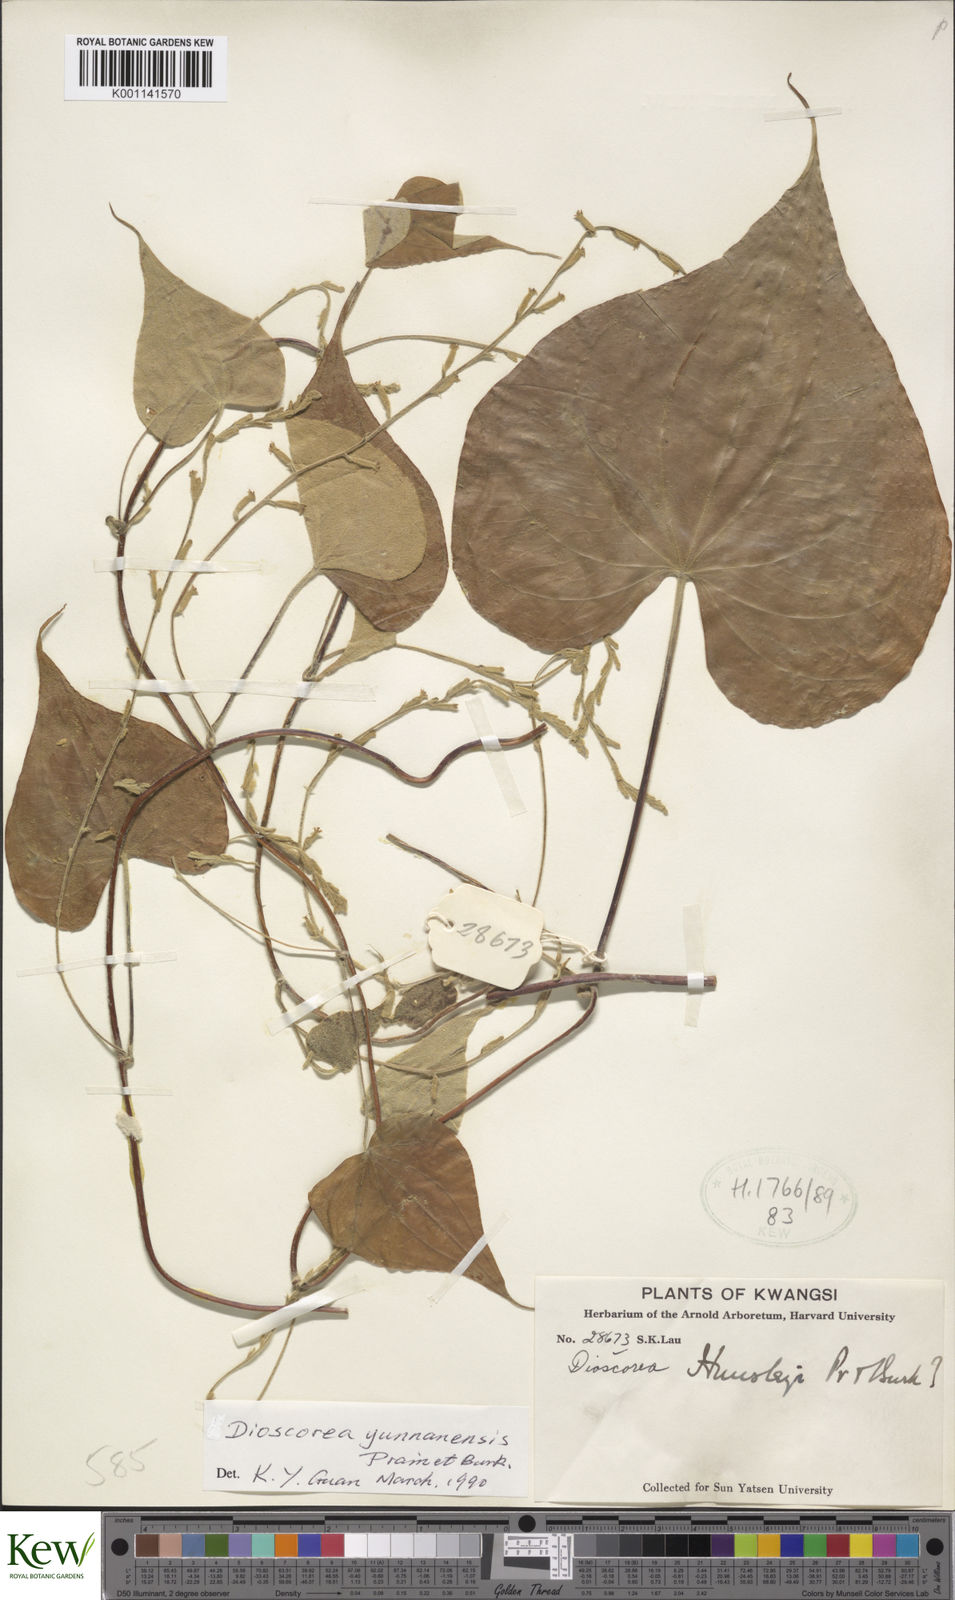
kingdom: Plantae
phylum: Tracheophyta
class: Liliopsida
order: Dioscoreales
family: Dioscoreaceae
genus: Dioscorea
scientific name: Dioscorea yunnanensis
